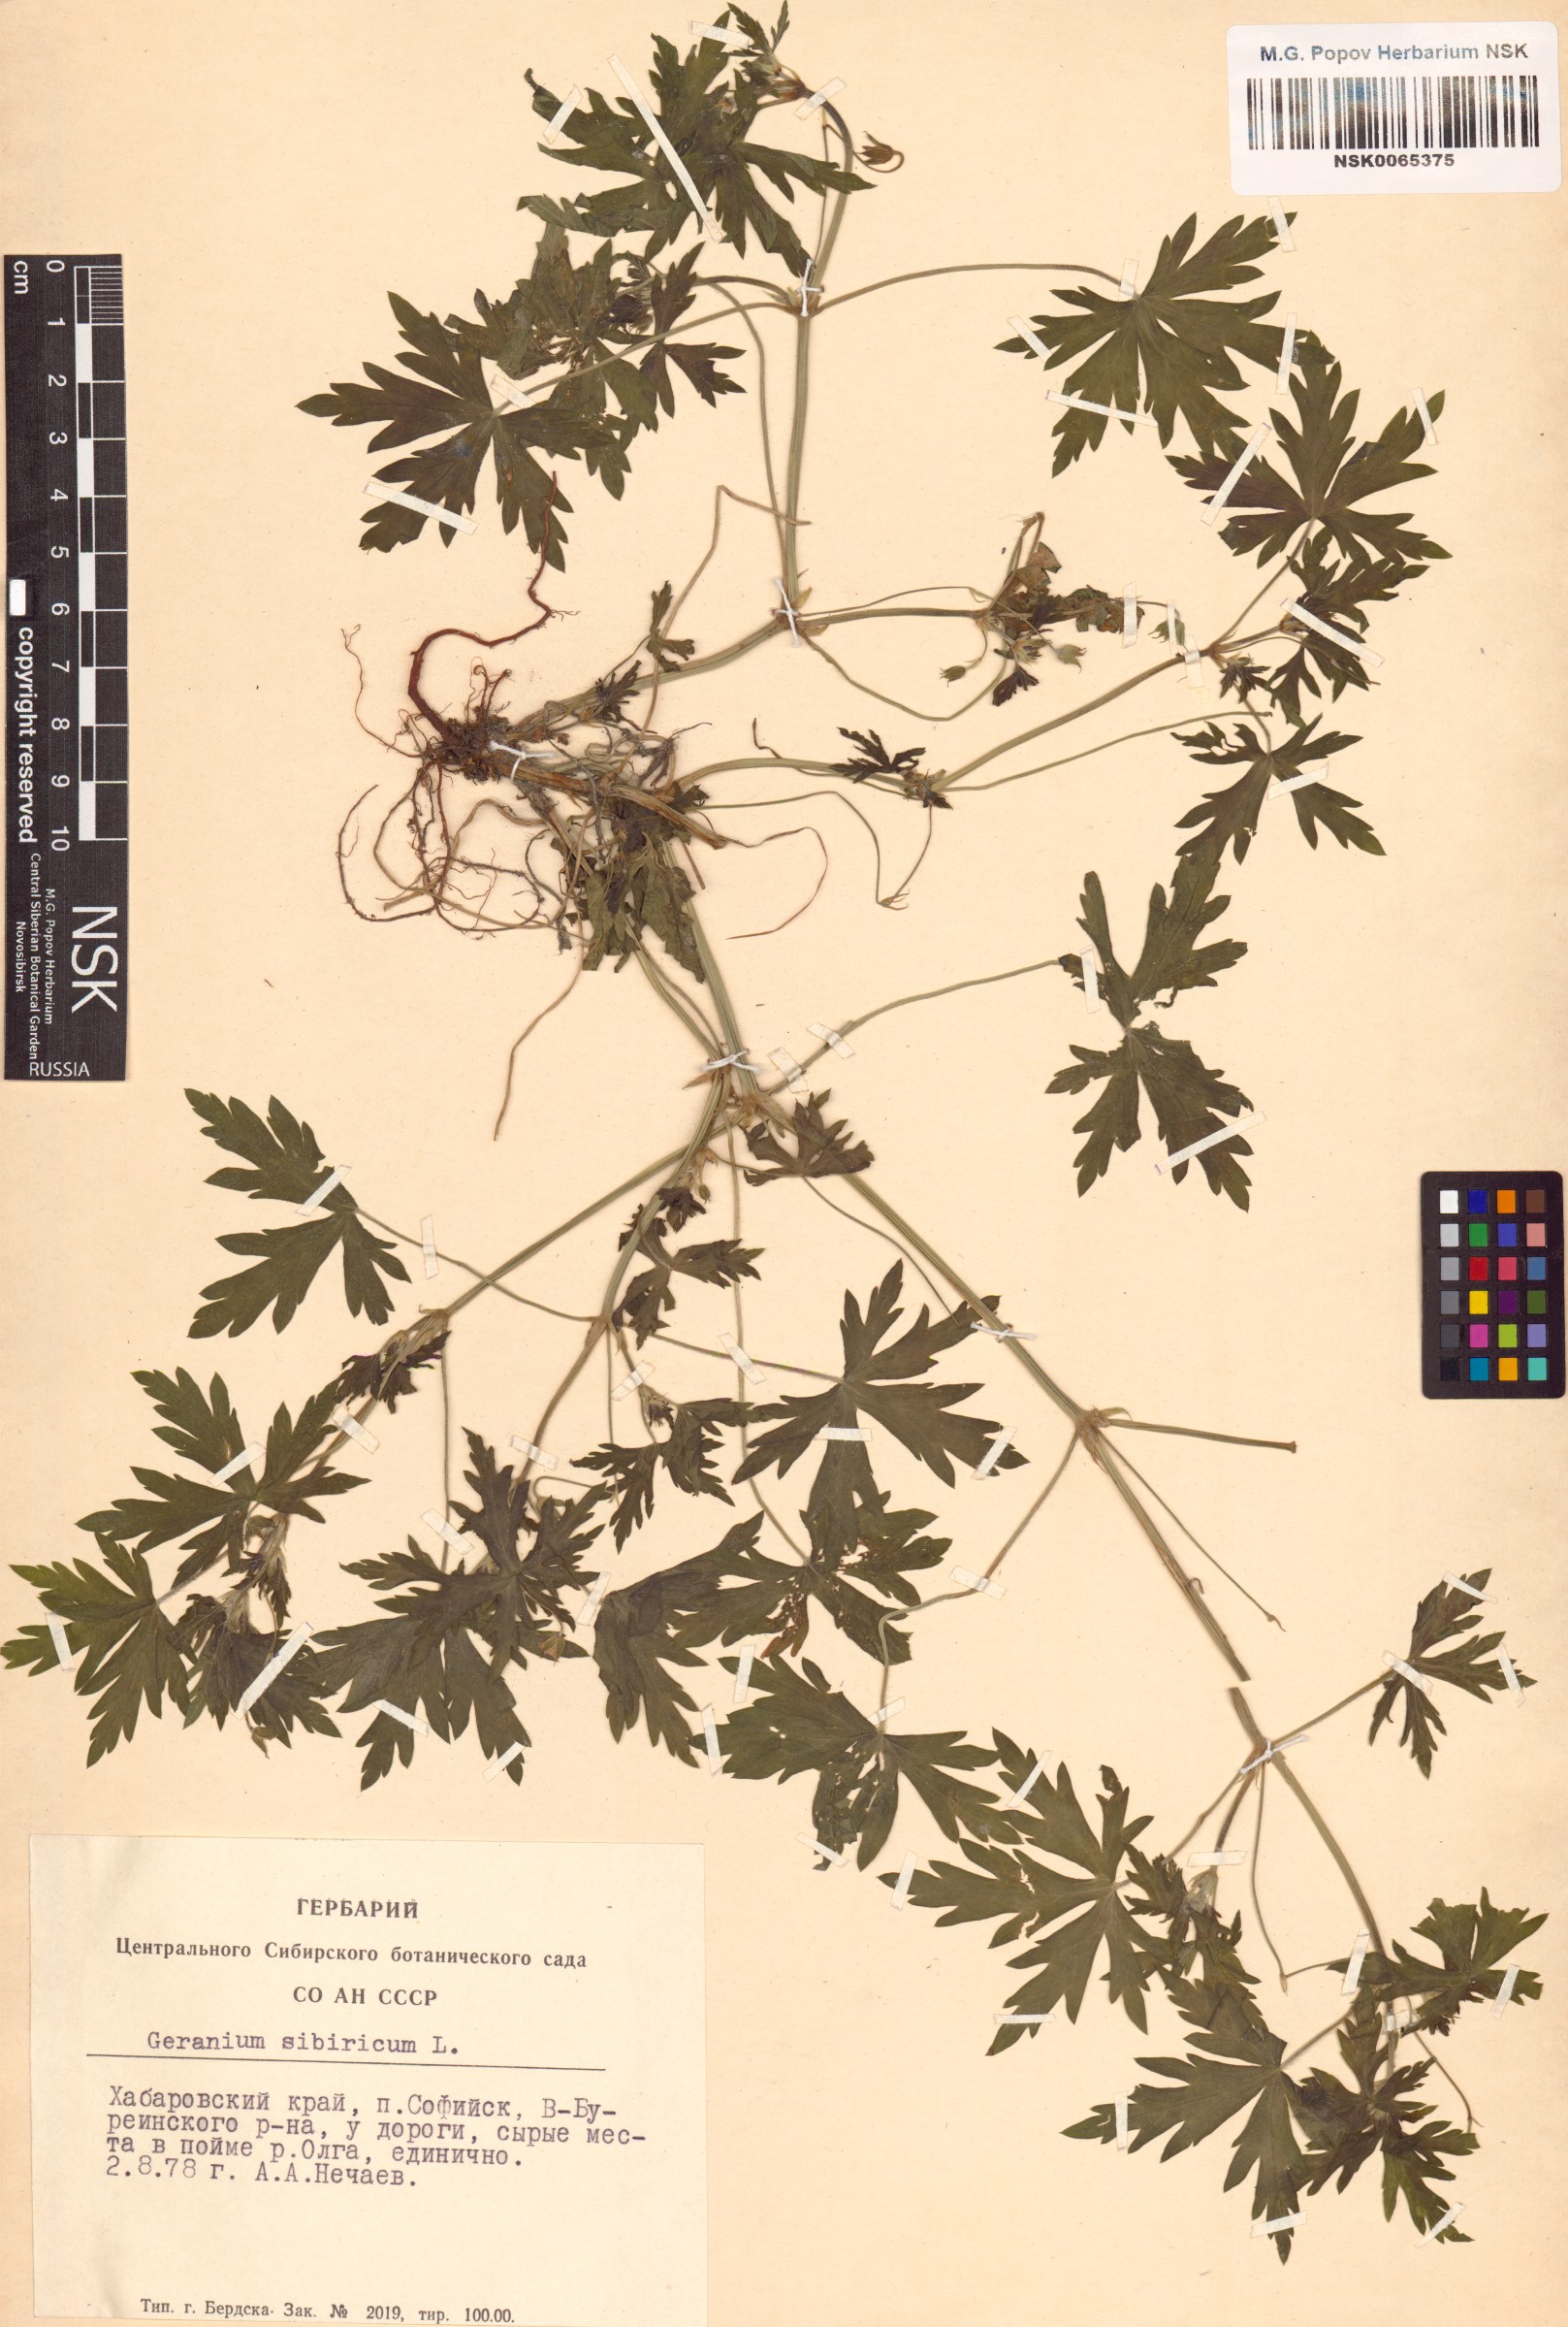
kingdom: Plantae
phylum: Tracheophyta
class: Magnoliopsida
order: Geraniales
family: Geraniaceae
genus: Geranium
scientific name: Geranium sibiricum
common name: Siberian crane's-bill
